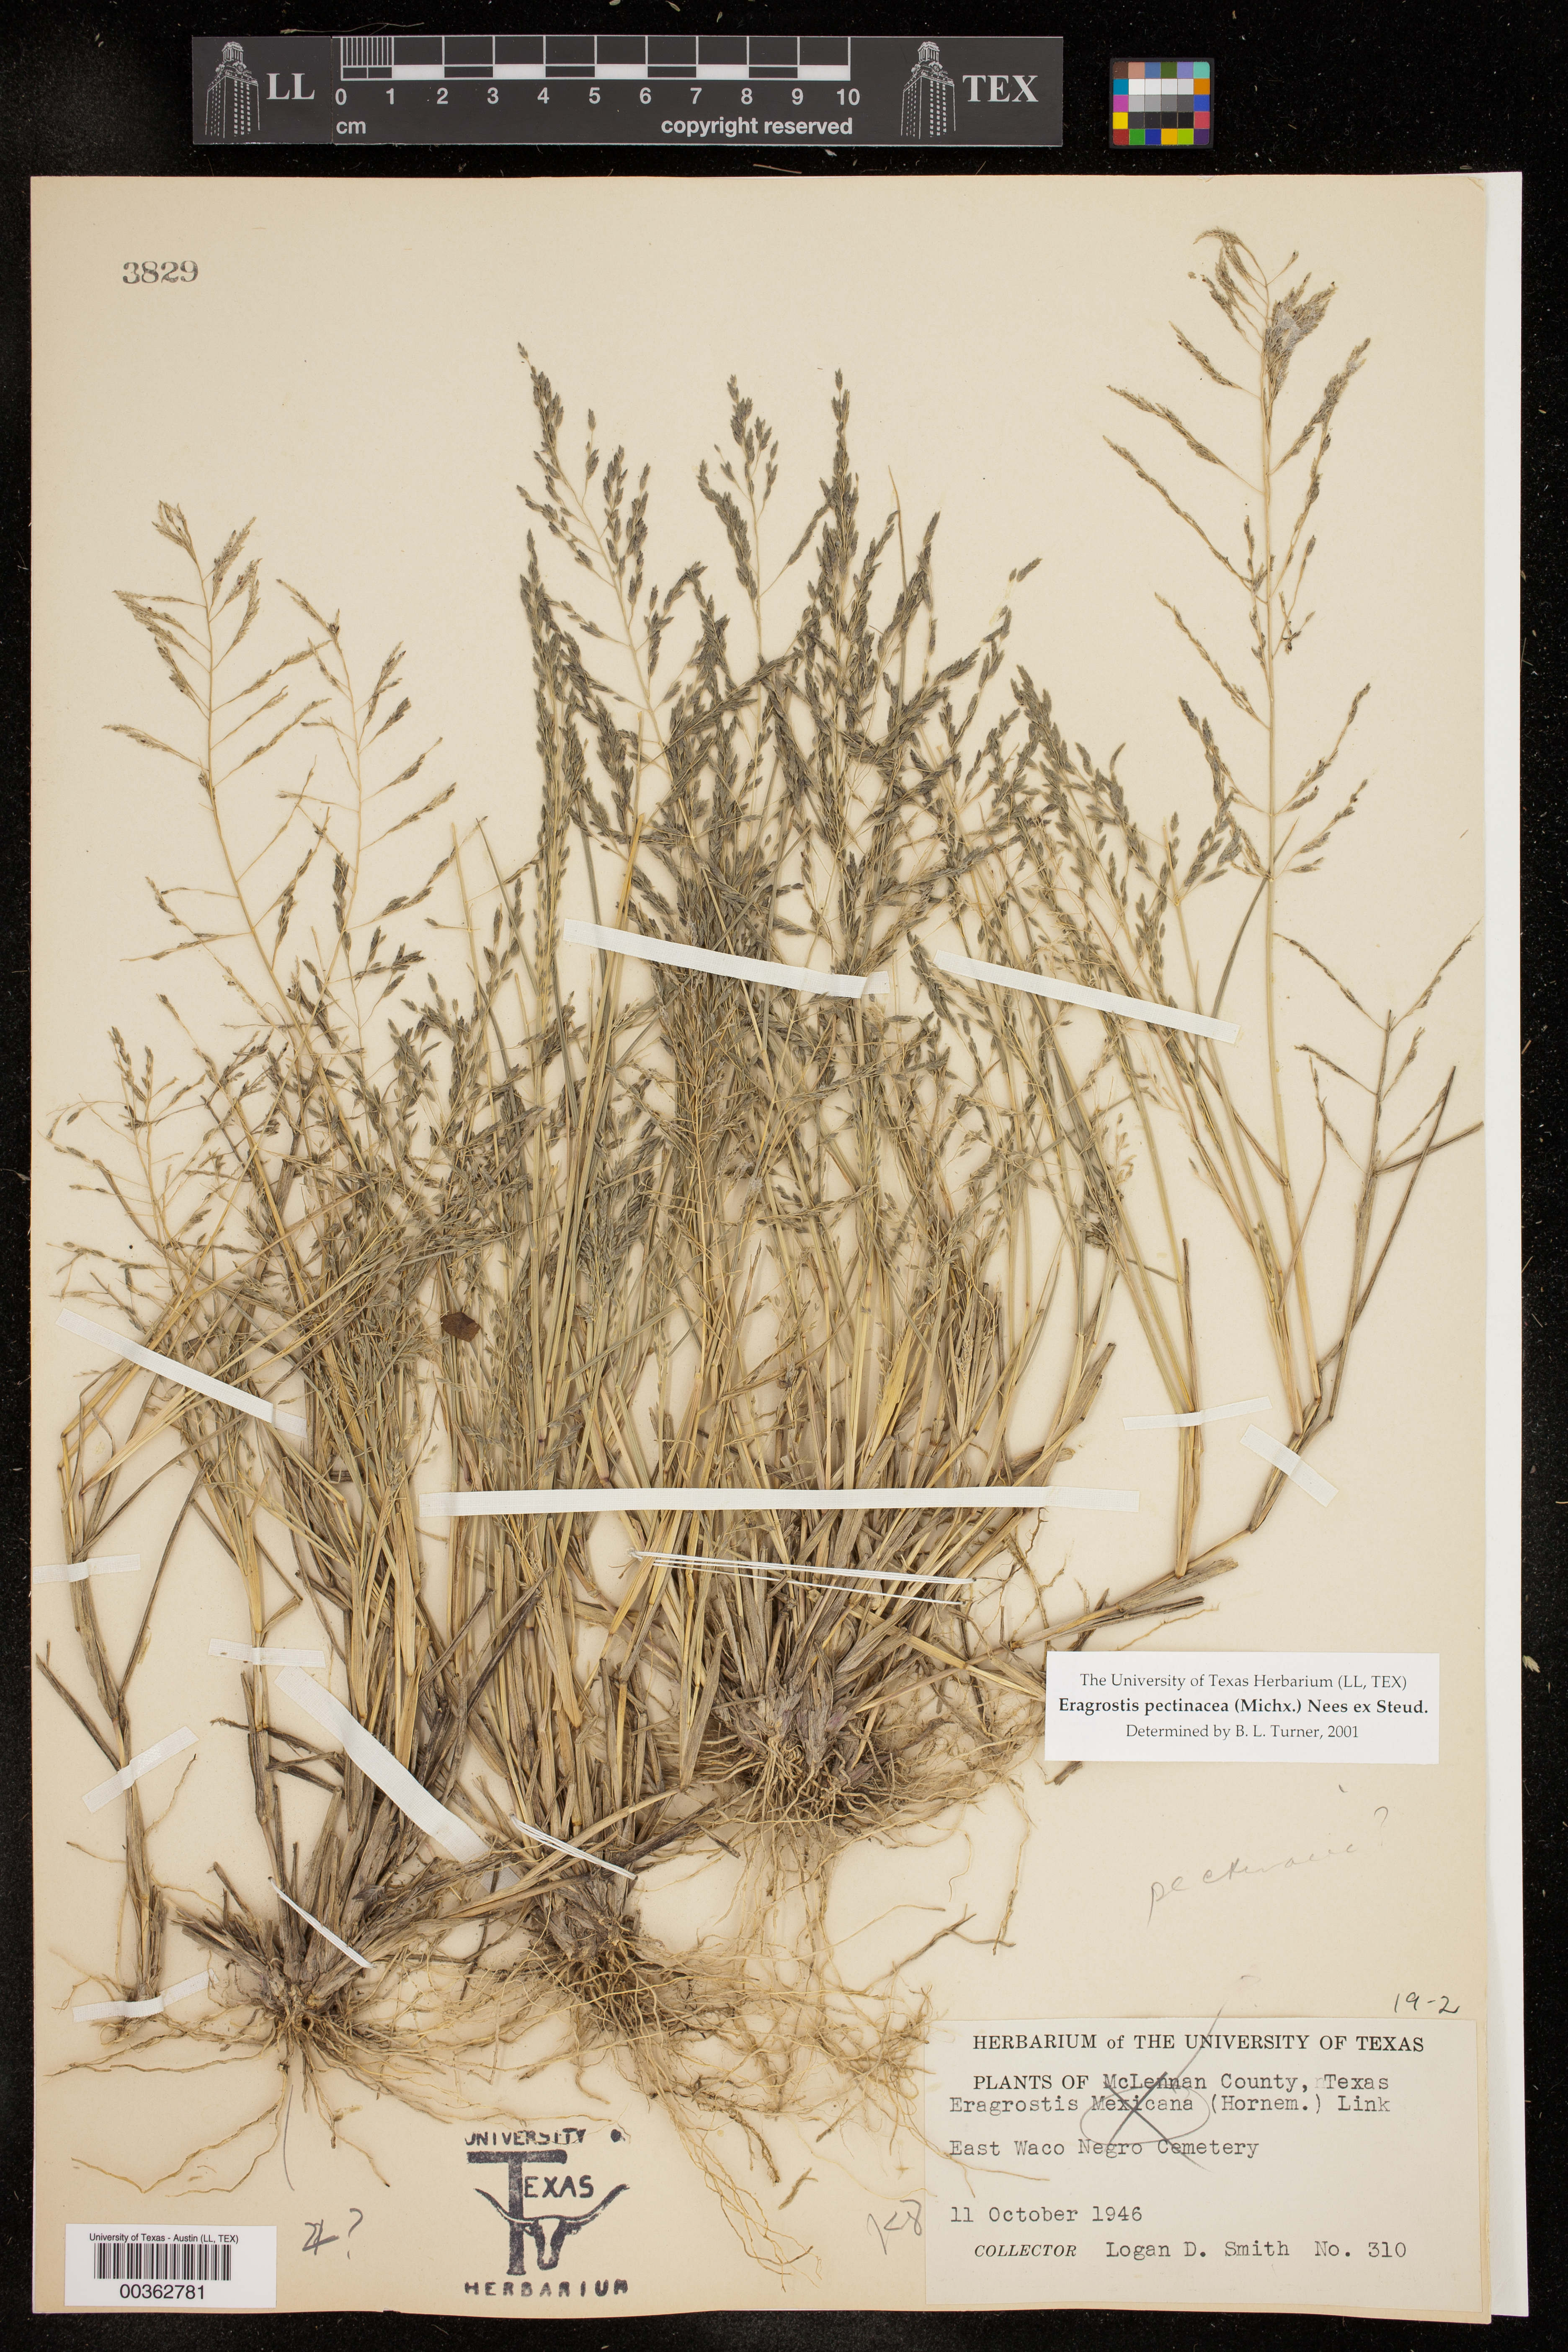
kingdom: Plantae
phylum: Tracheophyta
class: Liliopsida
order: Poales
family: Poaceae
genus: Eragrostis
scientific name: Eragrostis pectinacea
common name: Tufted lovegrass
